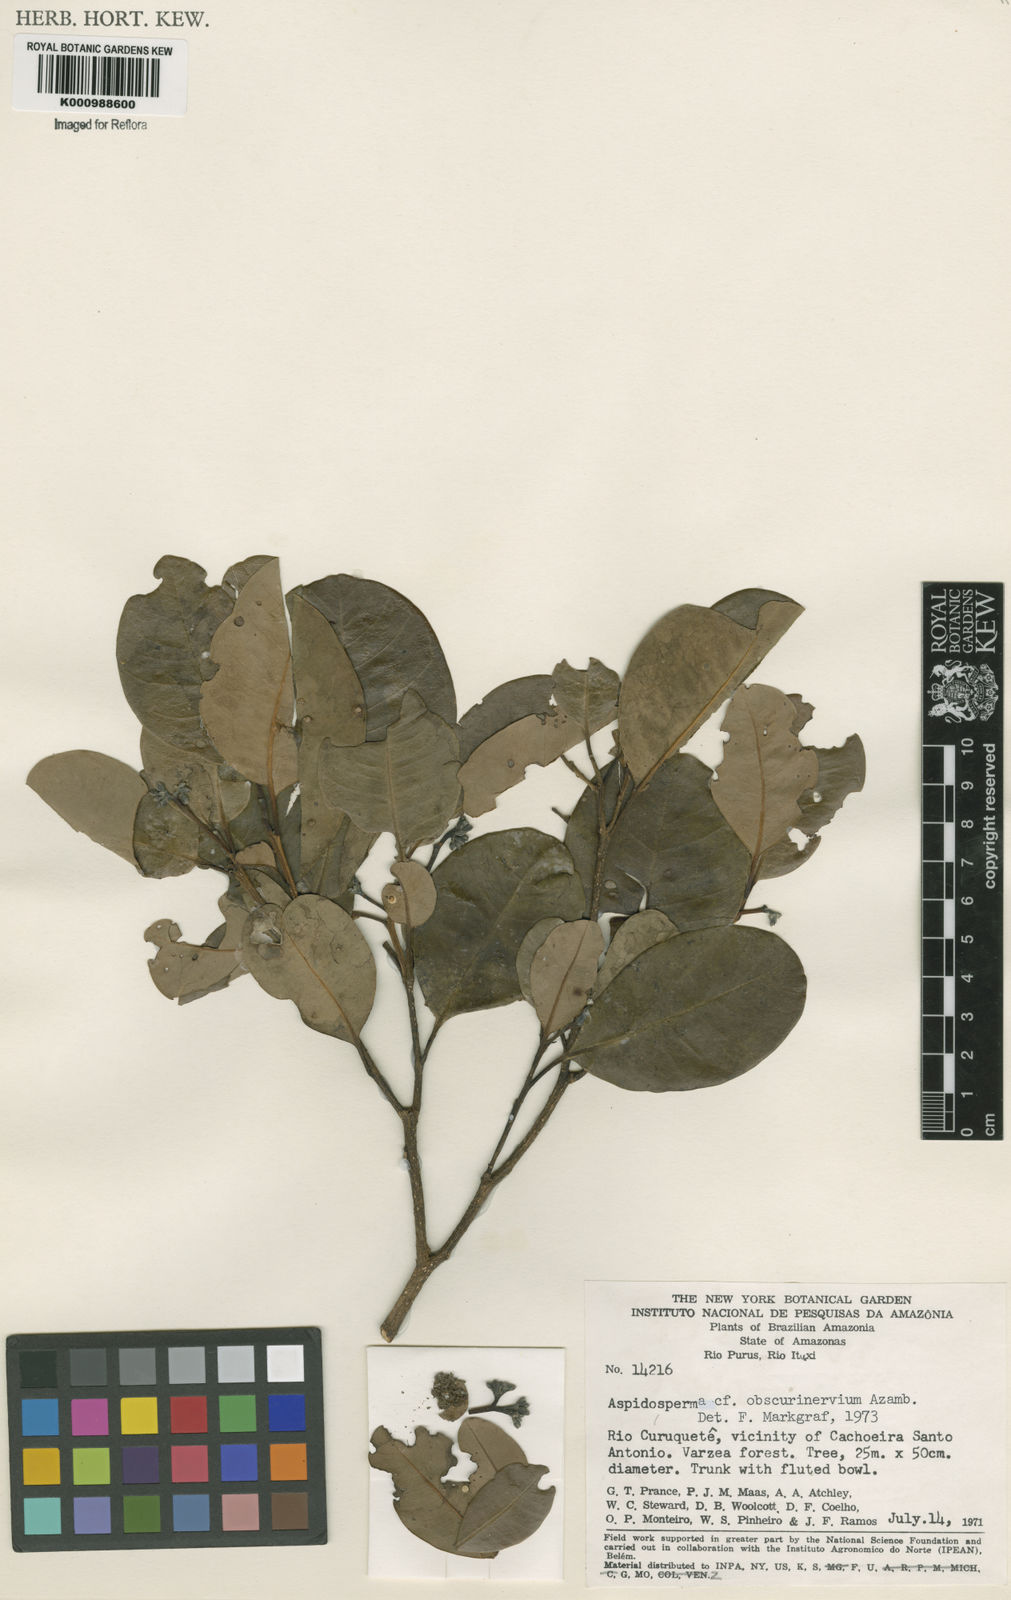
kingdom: Plantae
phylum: Tracheophyta
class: Magnoliopsida
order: Gentianales
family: Apocynaceae
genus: Aspidosperma
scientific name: Aspidosperma
